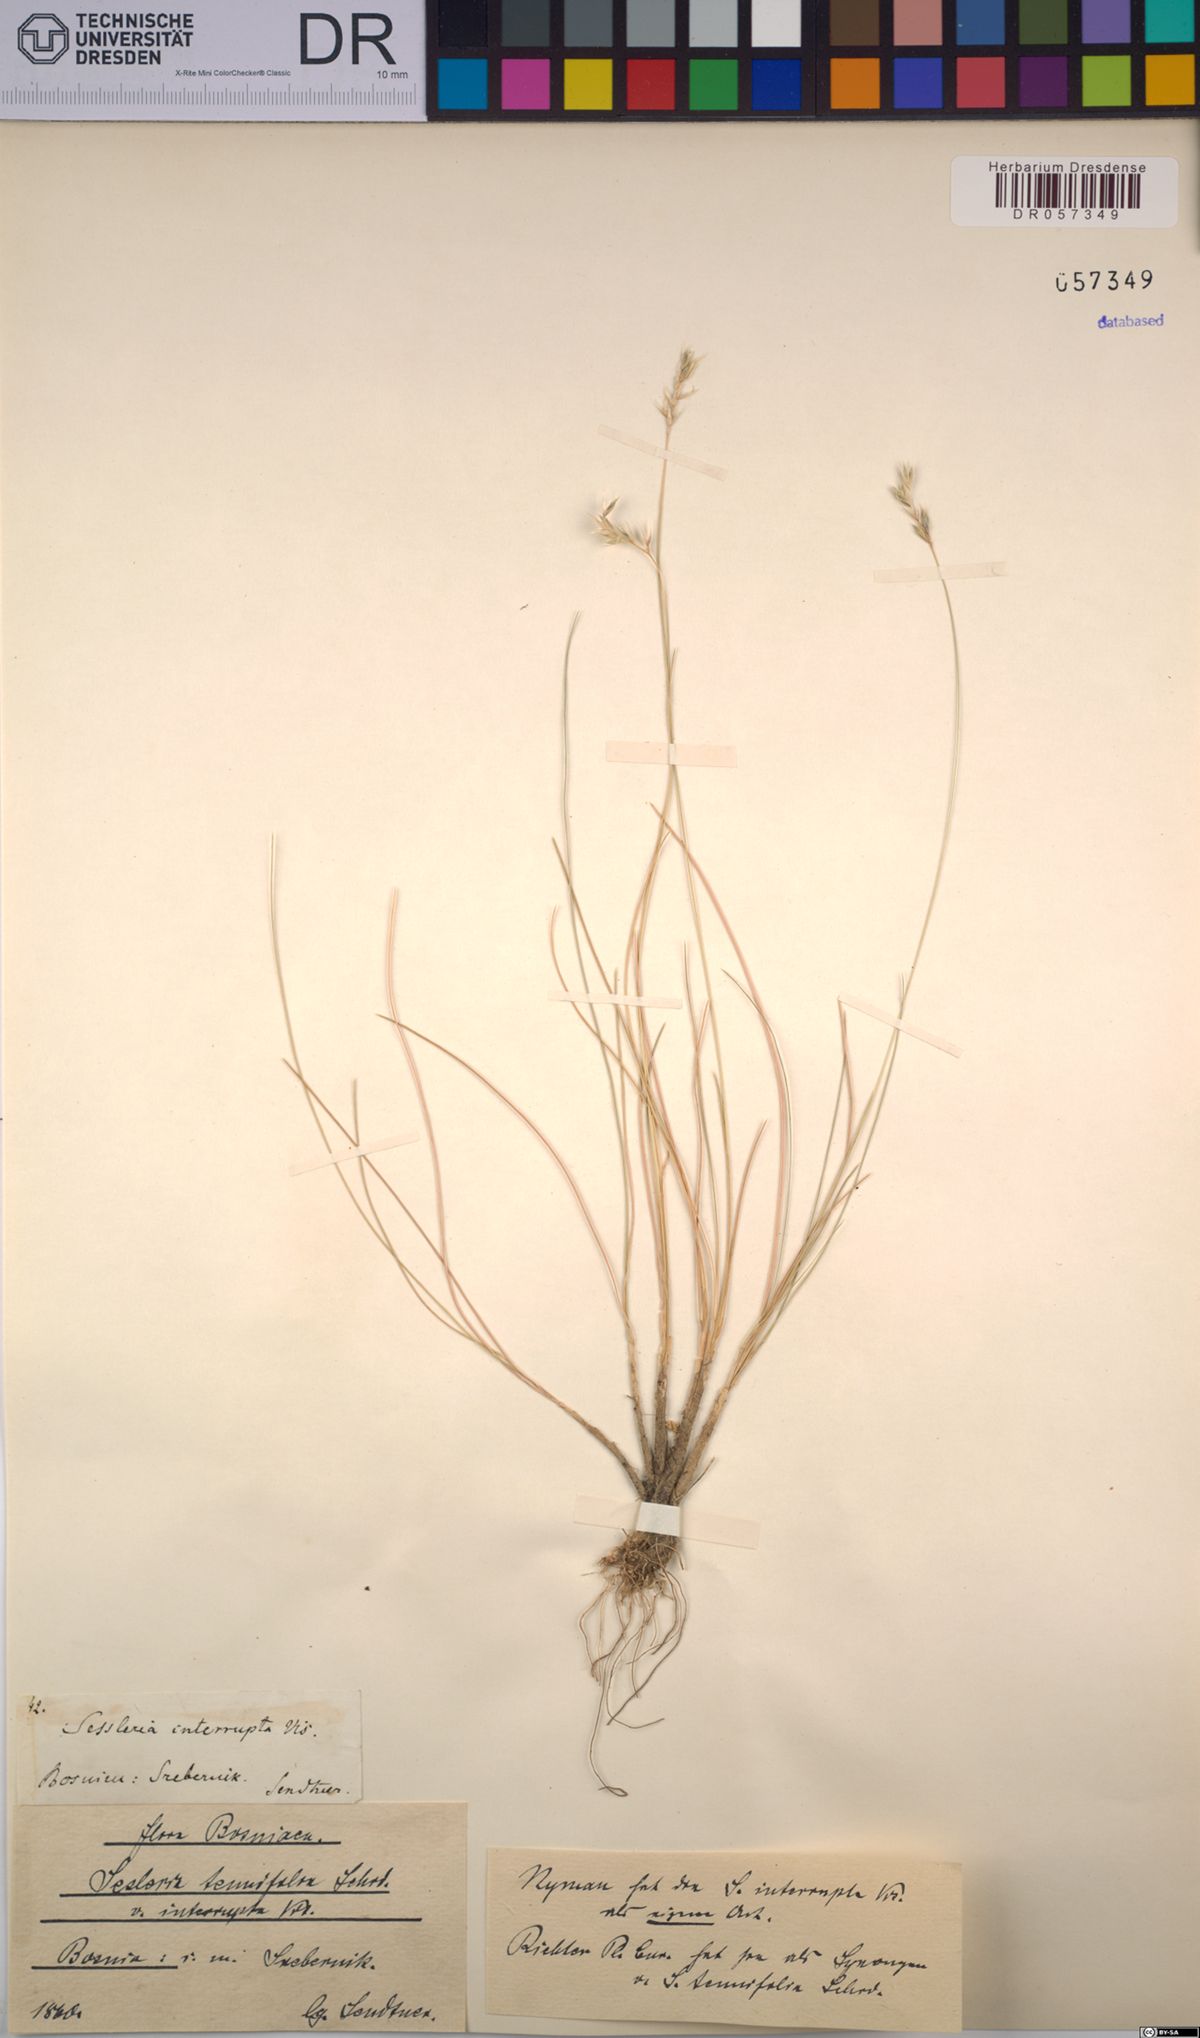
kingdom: Plantae
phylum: Tracheophyta
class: Liliopsida
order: Poales
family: Poaceae
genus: Sesleria
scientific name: Sesleria juncifolia
